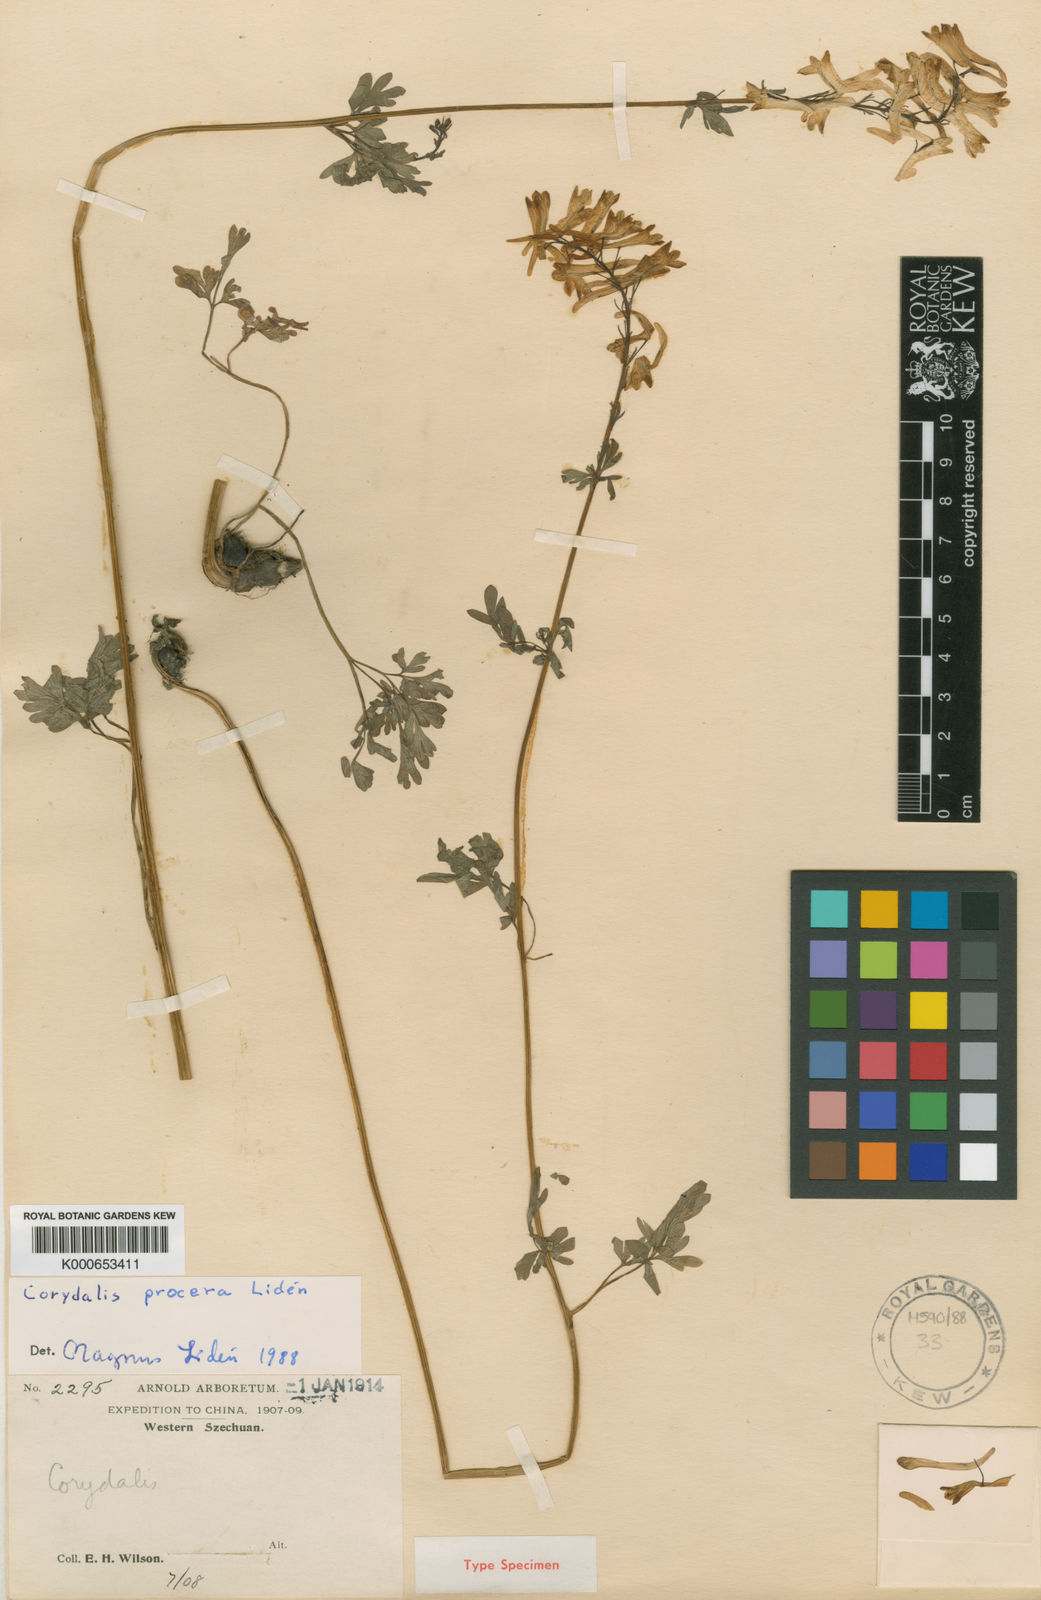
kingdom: Plantae
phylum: Tracheophyta
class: Magnoliopsida
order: Ranunculales
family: Papaveraceae
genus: Corydalis
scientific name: Corydalis
